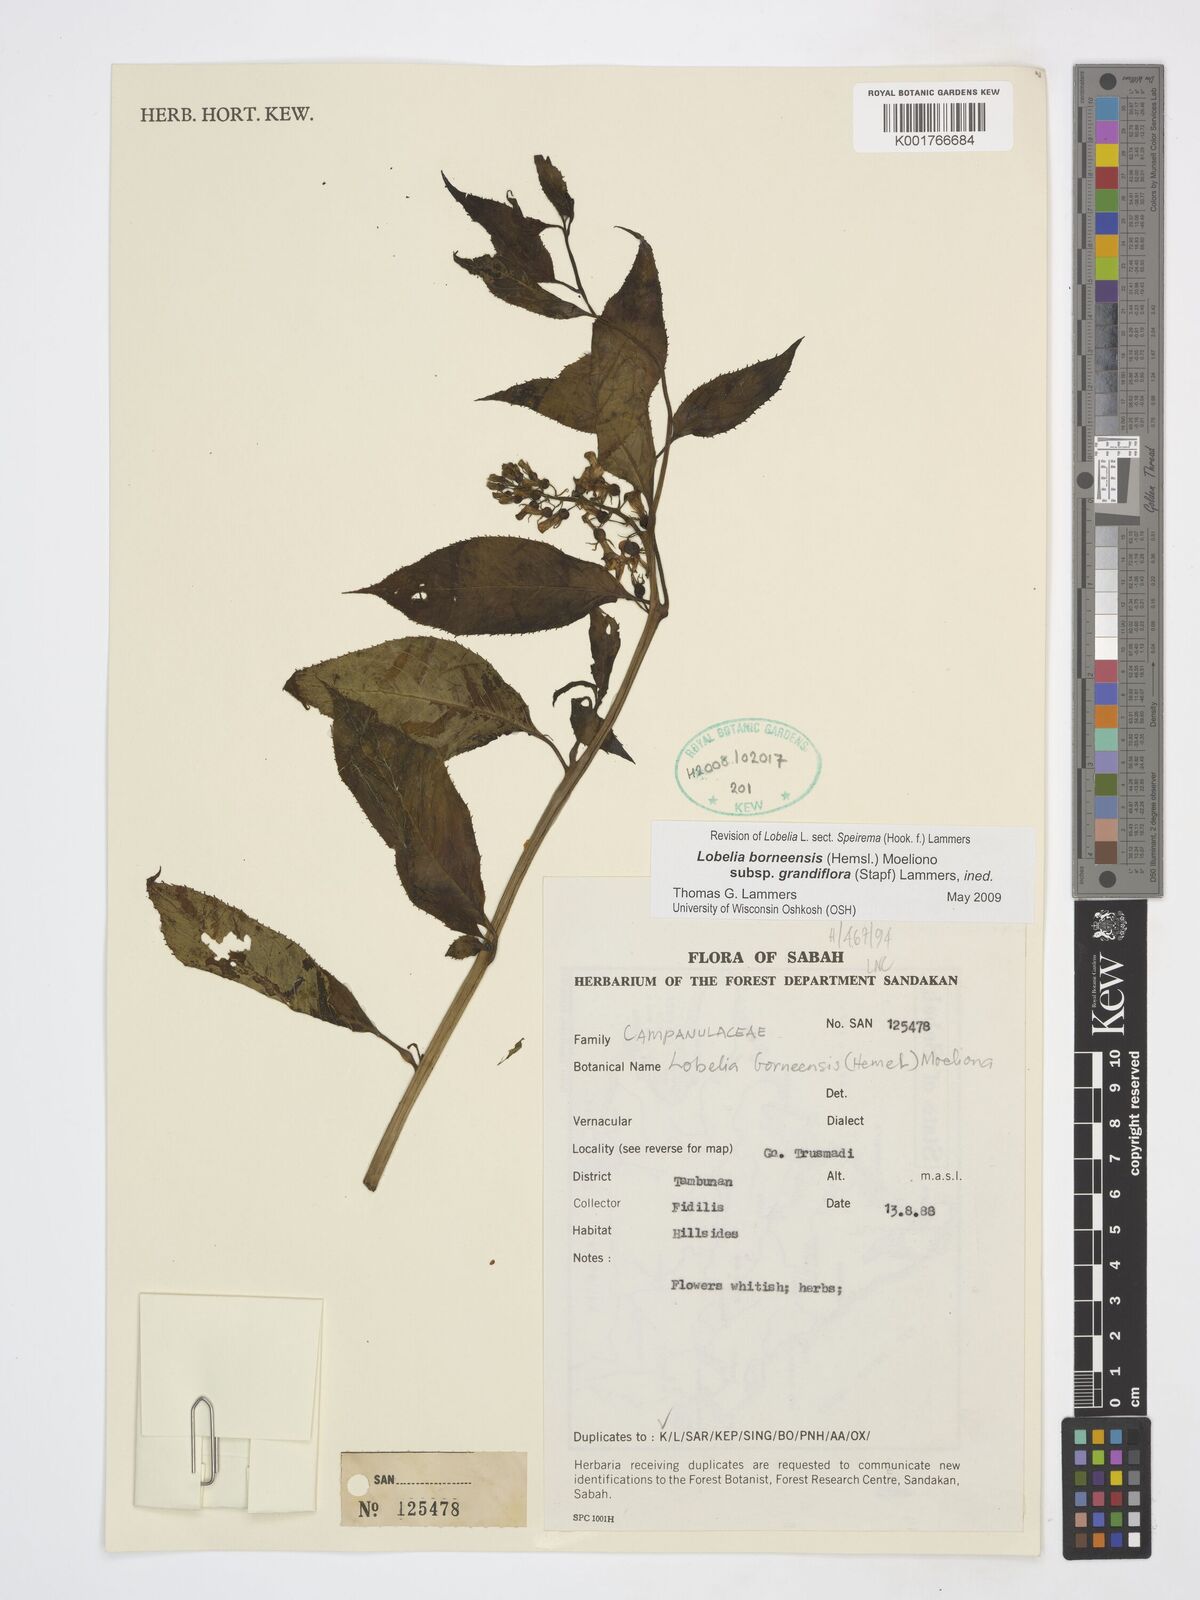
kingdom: Plantae
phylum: Tracheophyta
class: Magnoliopsida
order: Asterales
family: Campanulaceae
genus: Lobelia
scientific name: Lobelia borneensis
